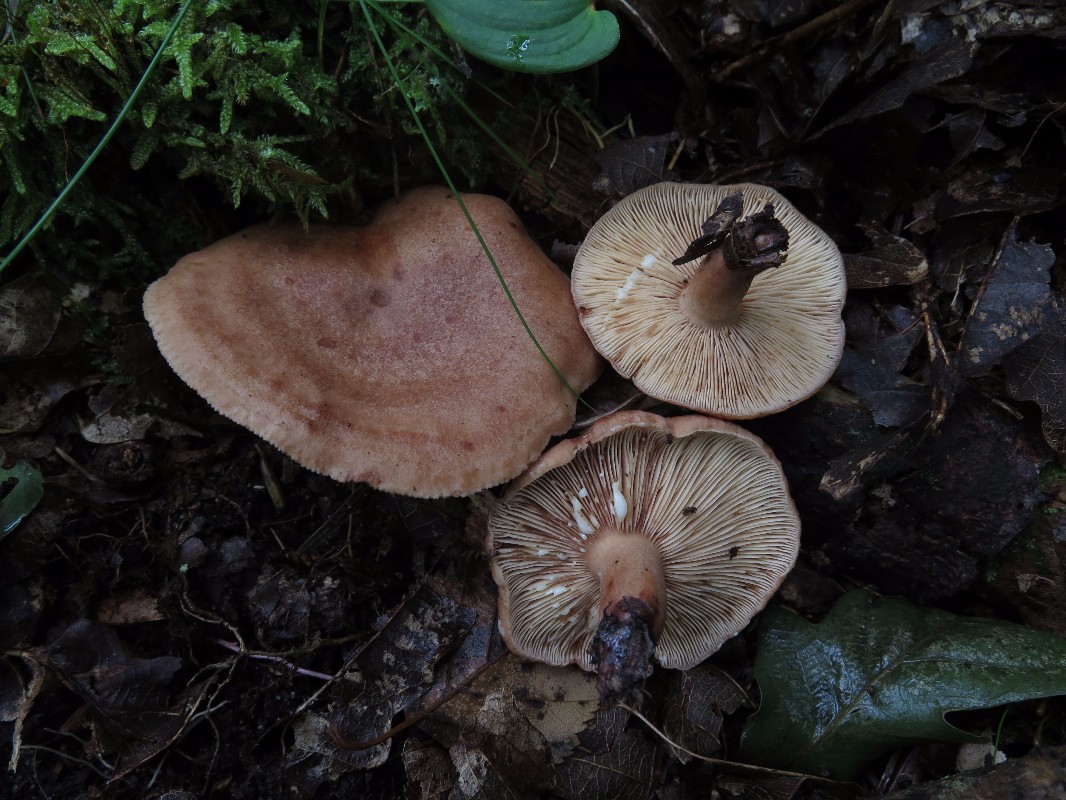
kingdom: Fungi
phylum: Basidiomycota
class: Agaricomycetes
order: Russulales
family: Russulaceae
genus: Lactarius
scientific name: Lactarius quietus
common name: ege-mælkehat
